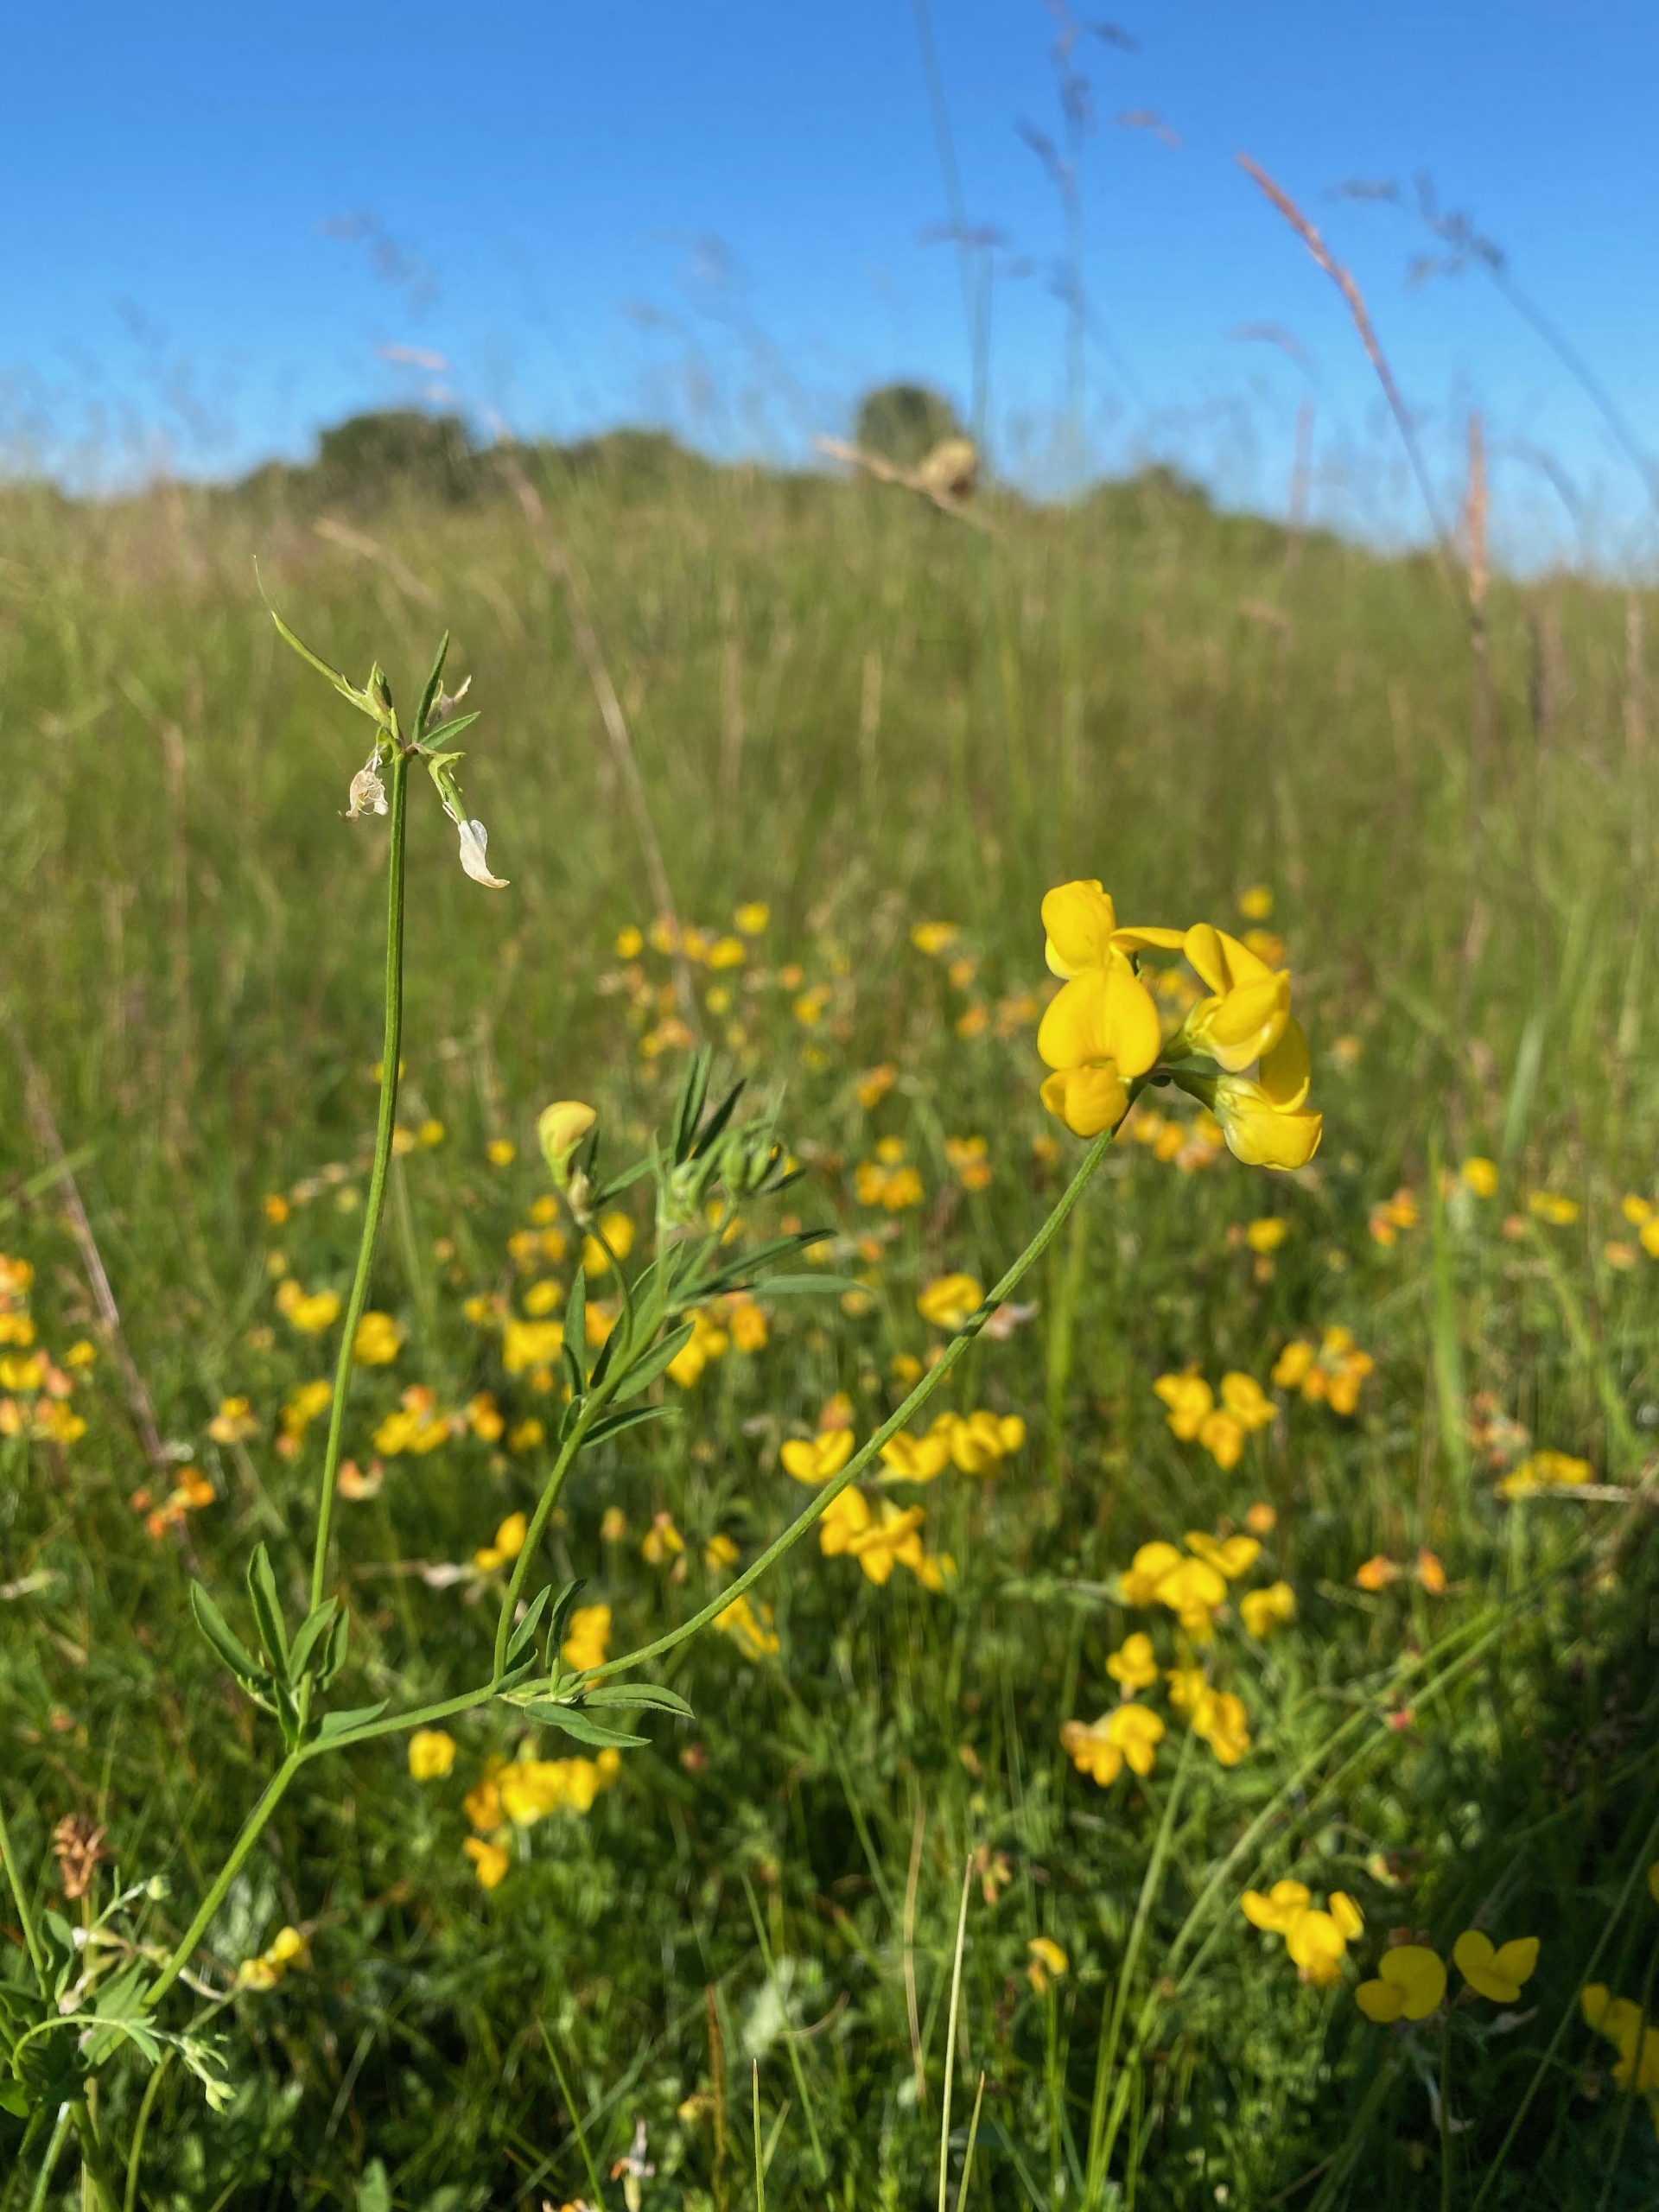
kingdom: Plantae
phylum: Tracheophyta
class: Magnoliopsida
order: Fabales
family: Fabaceae
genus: Lotus
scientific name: Lotus tenuis
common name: Smalbladet kællingetand
